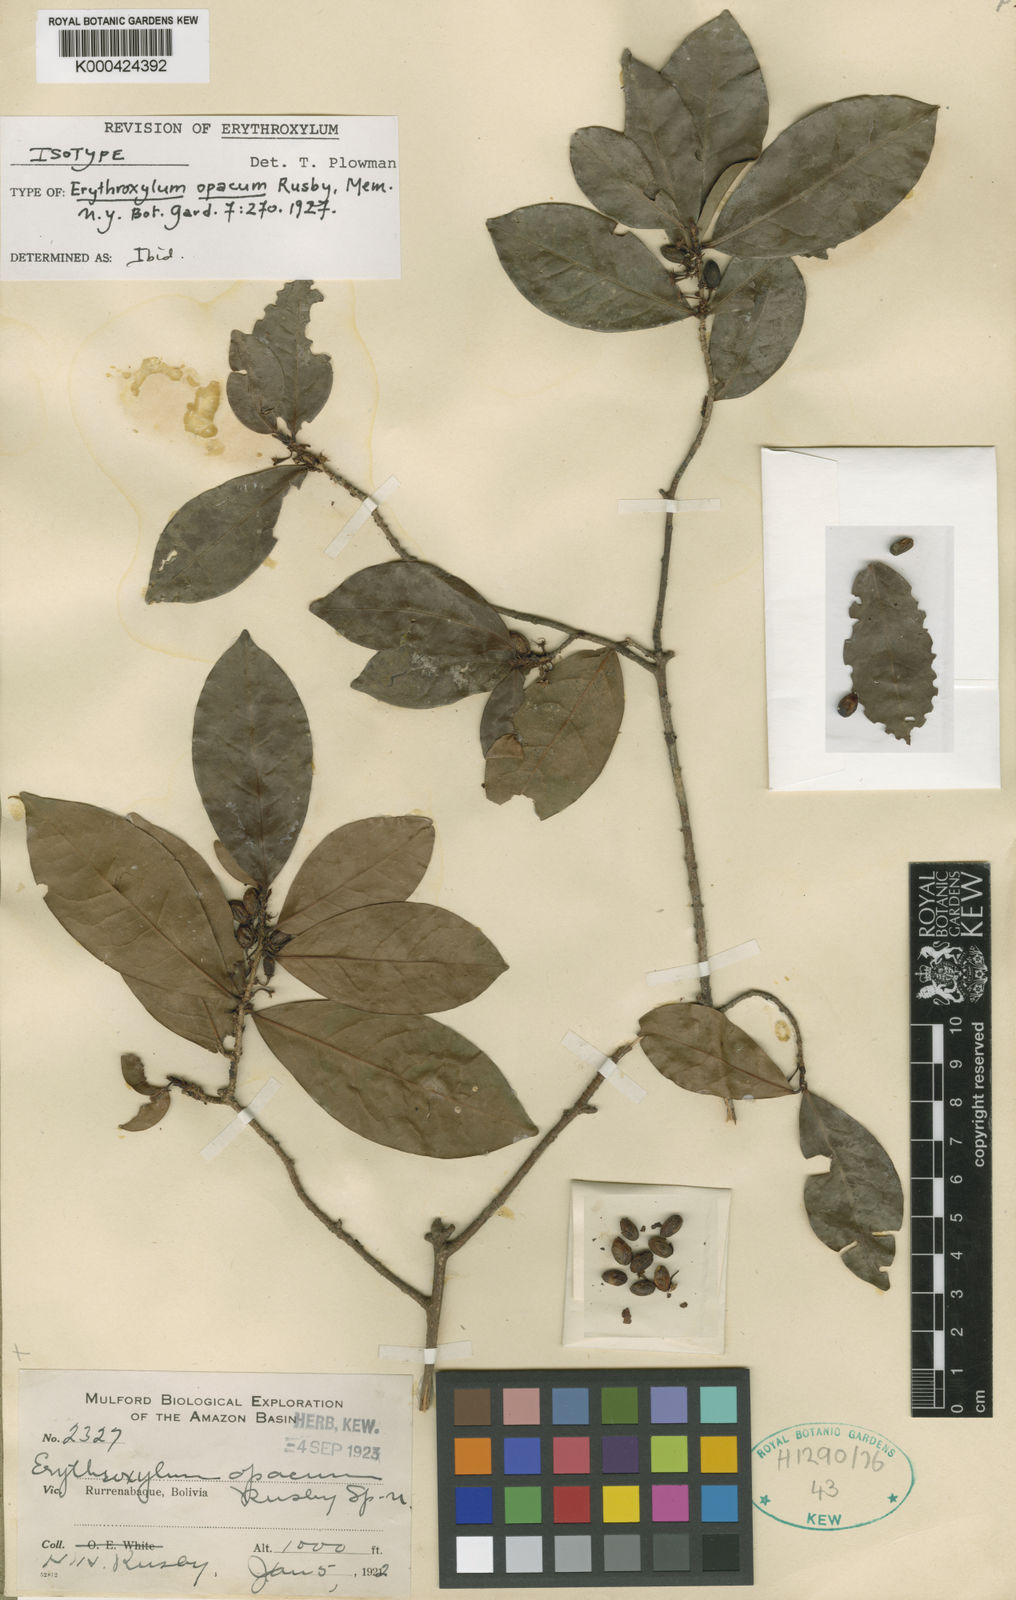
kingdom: Plantae
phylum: Tracheophyta
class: Magnoliopsida
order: Malpighiales
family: Erythroxylaceae
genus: Erythroxylum
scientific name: Erythroxylum opacum
